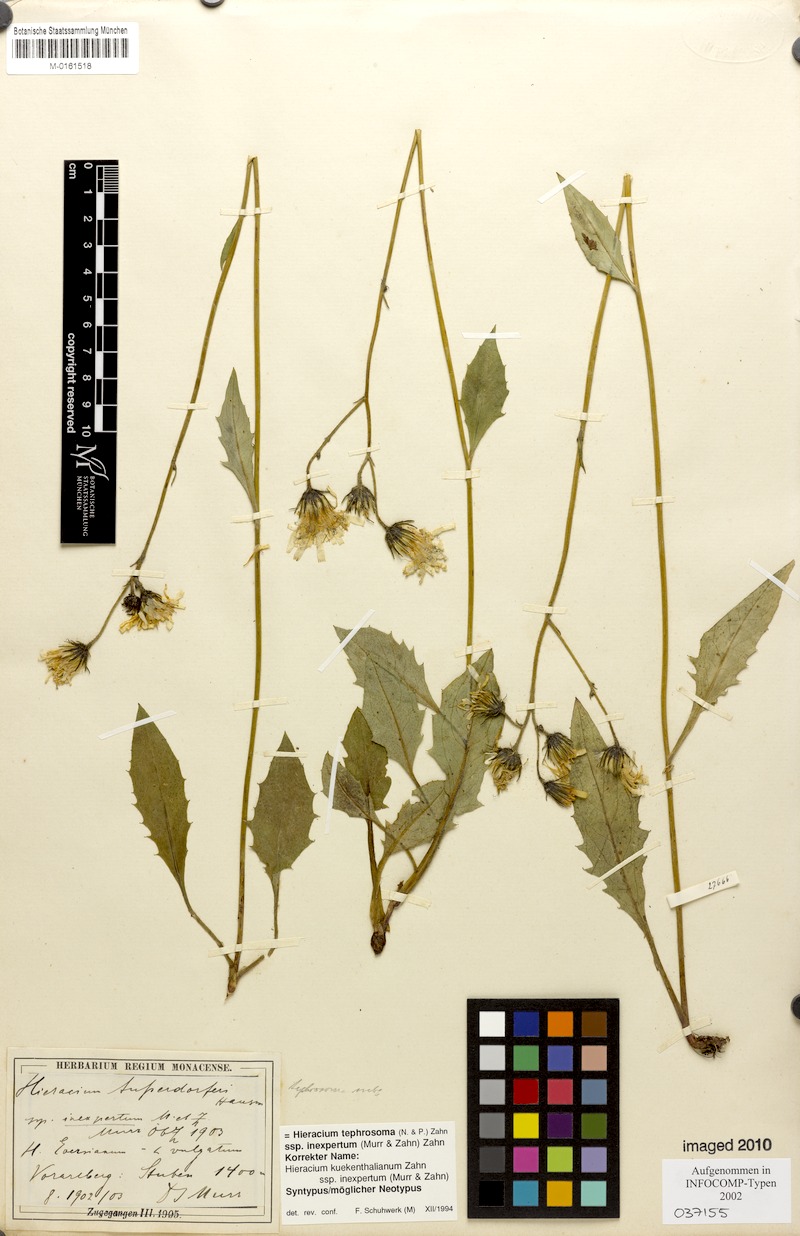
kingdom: Plantae
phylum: Tracheophyta
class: Magnoliopsida
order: Asterales
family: Asteraceae
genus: Hieracium
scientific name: Hieracium tephrosoma
